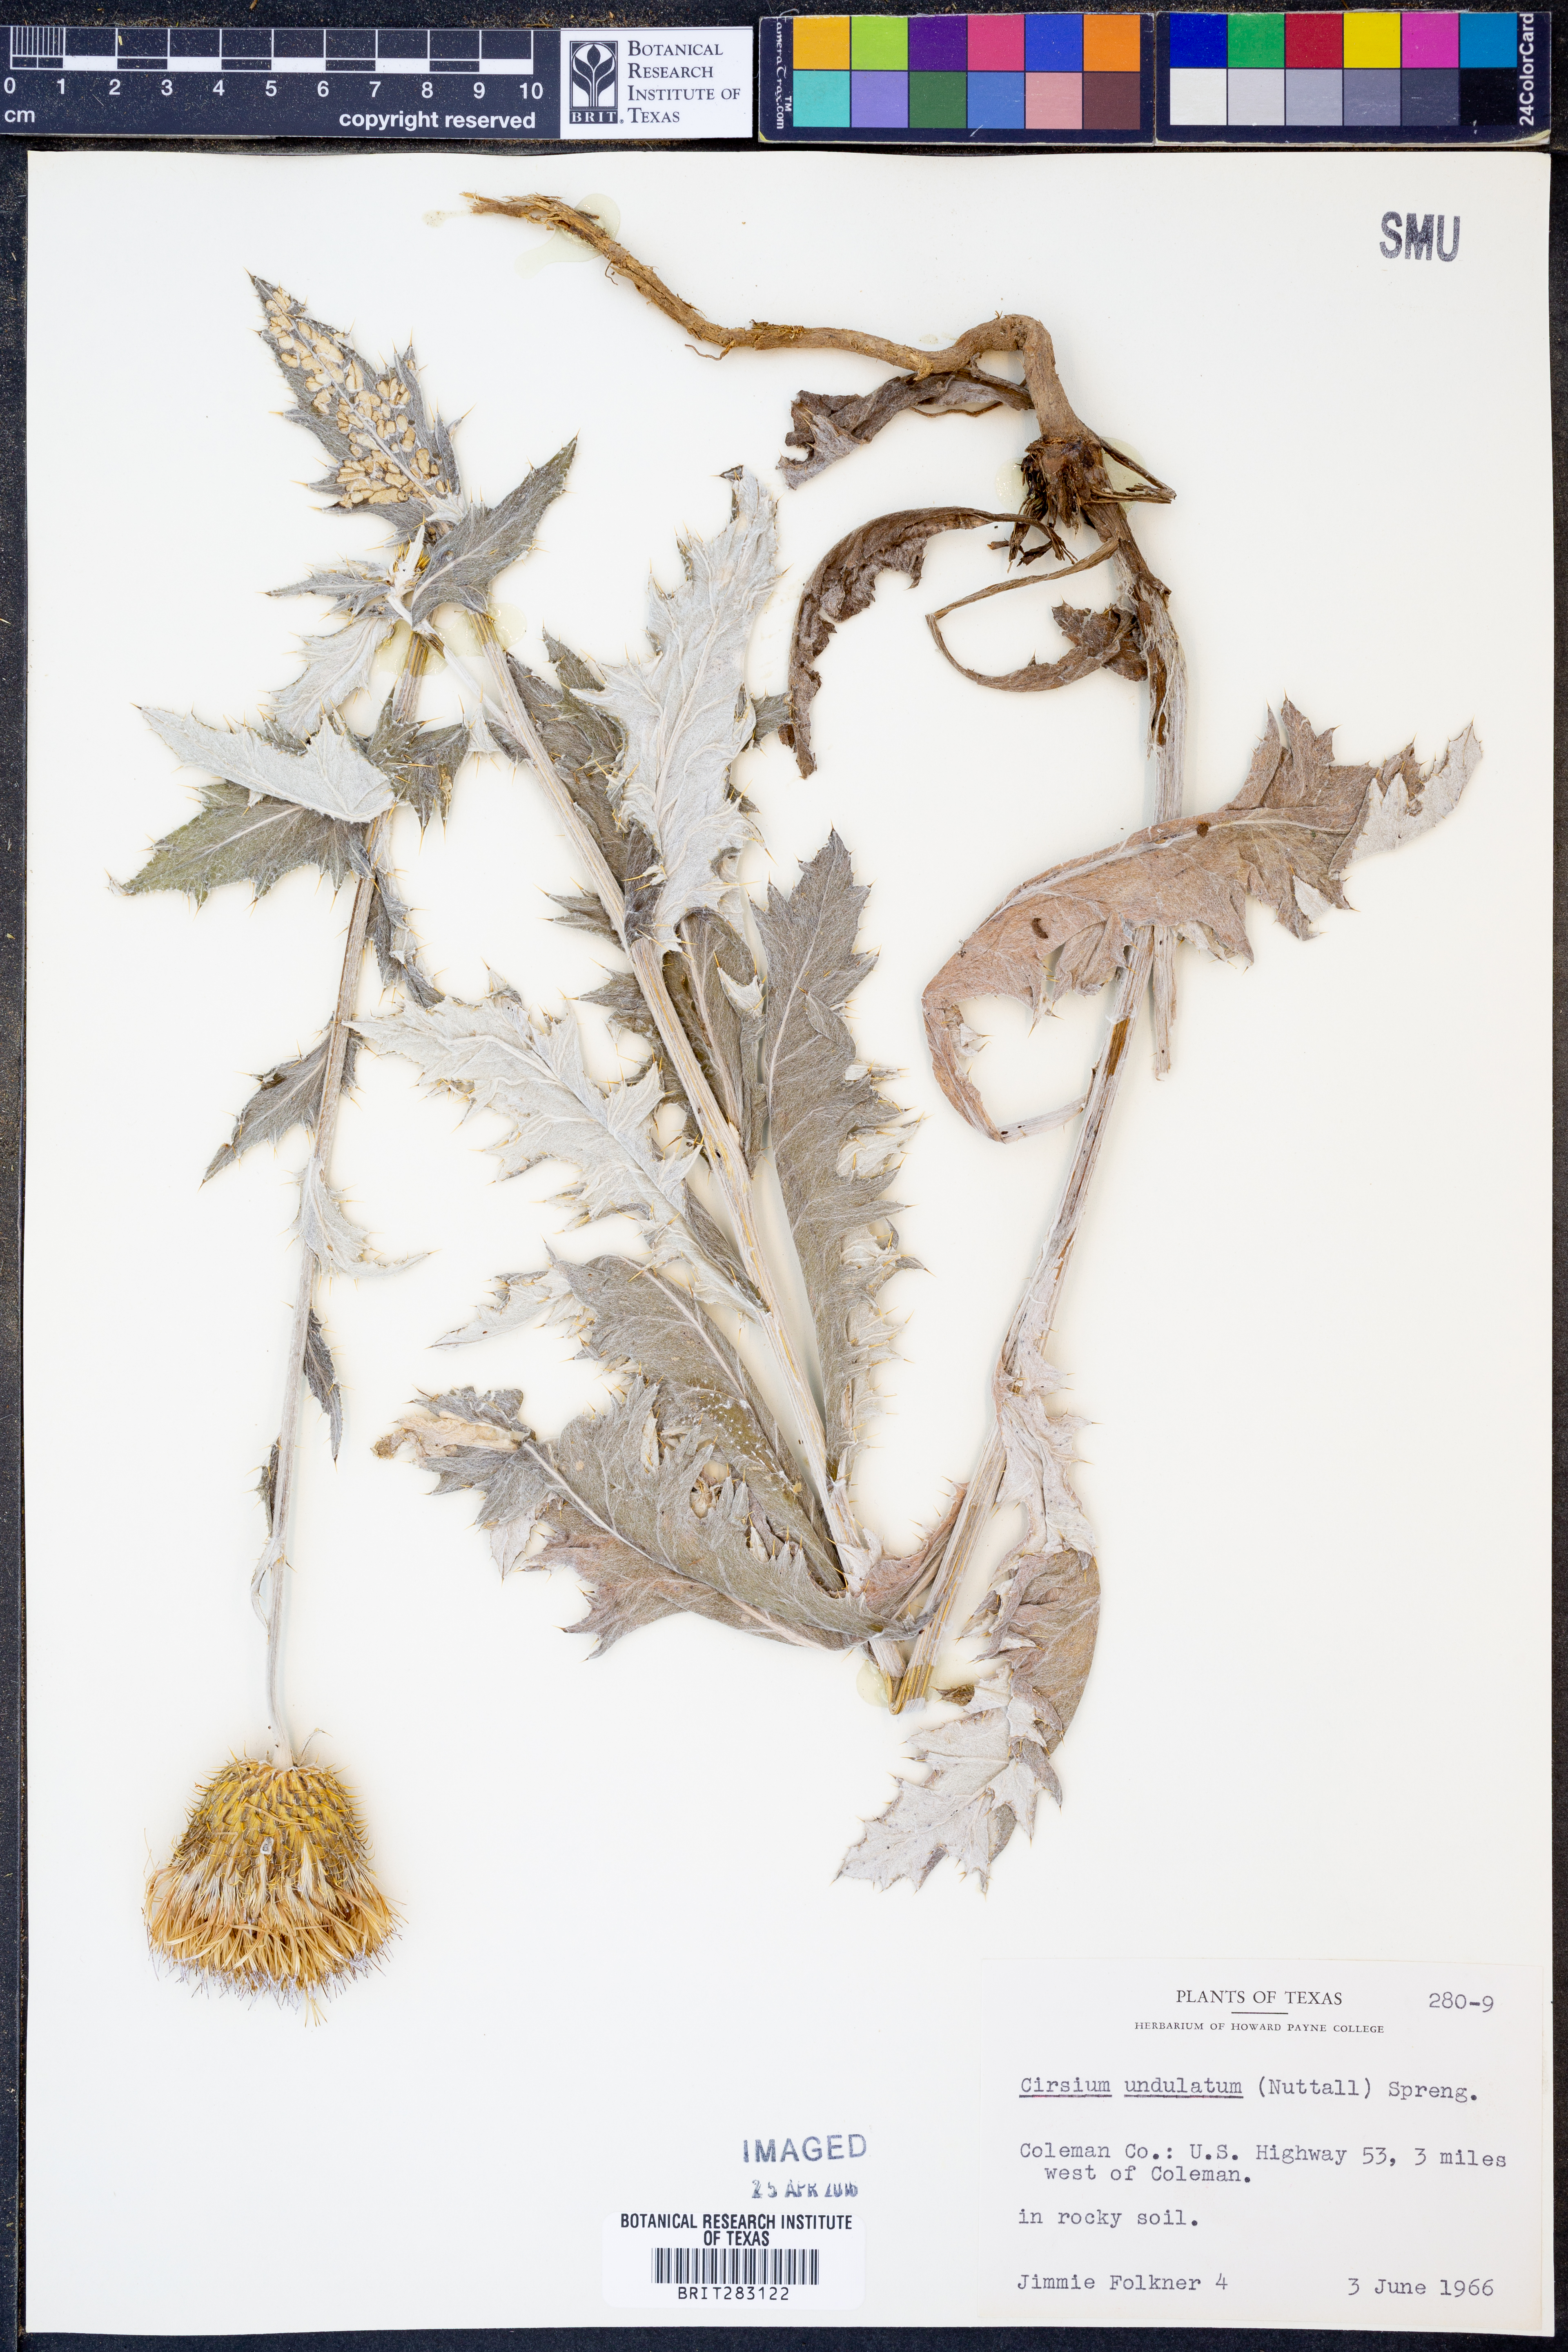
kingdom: Plantae
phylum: Tracheophyta
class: Magnoliopsida
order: Asterales
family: Asteraceae
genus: Cirsium
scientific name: Cirsium undulatum
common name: Pasture thistle
